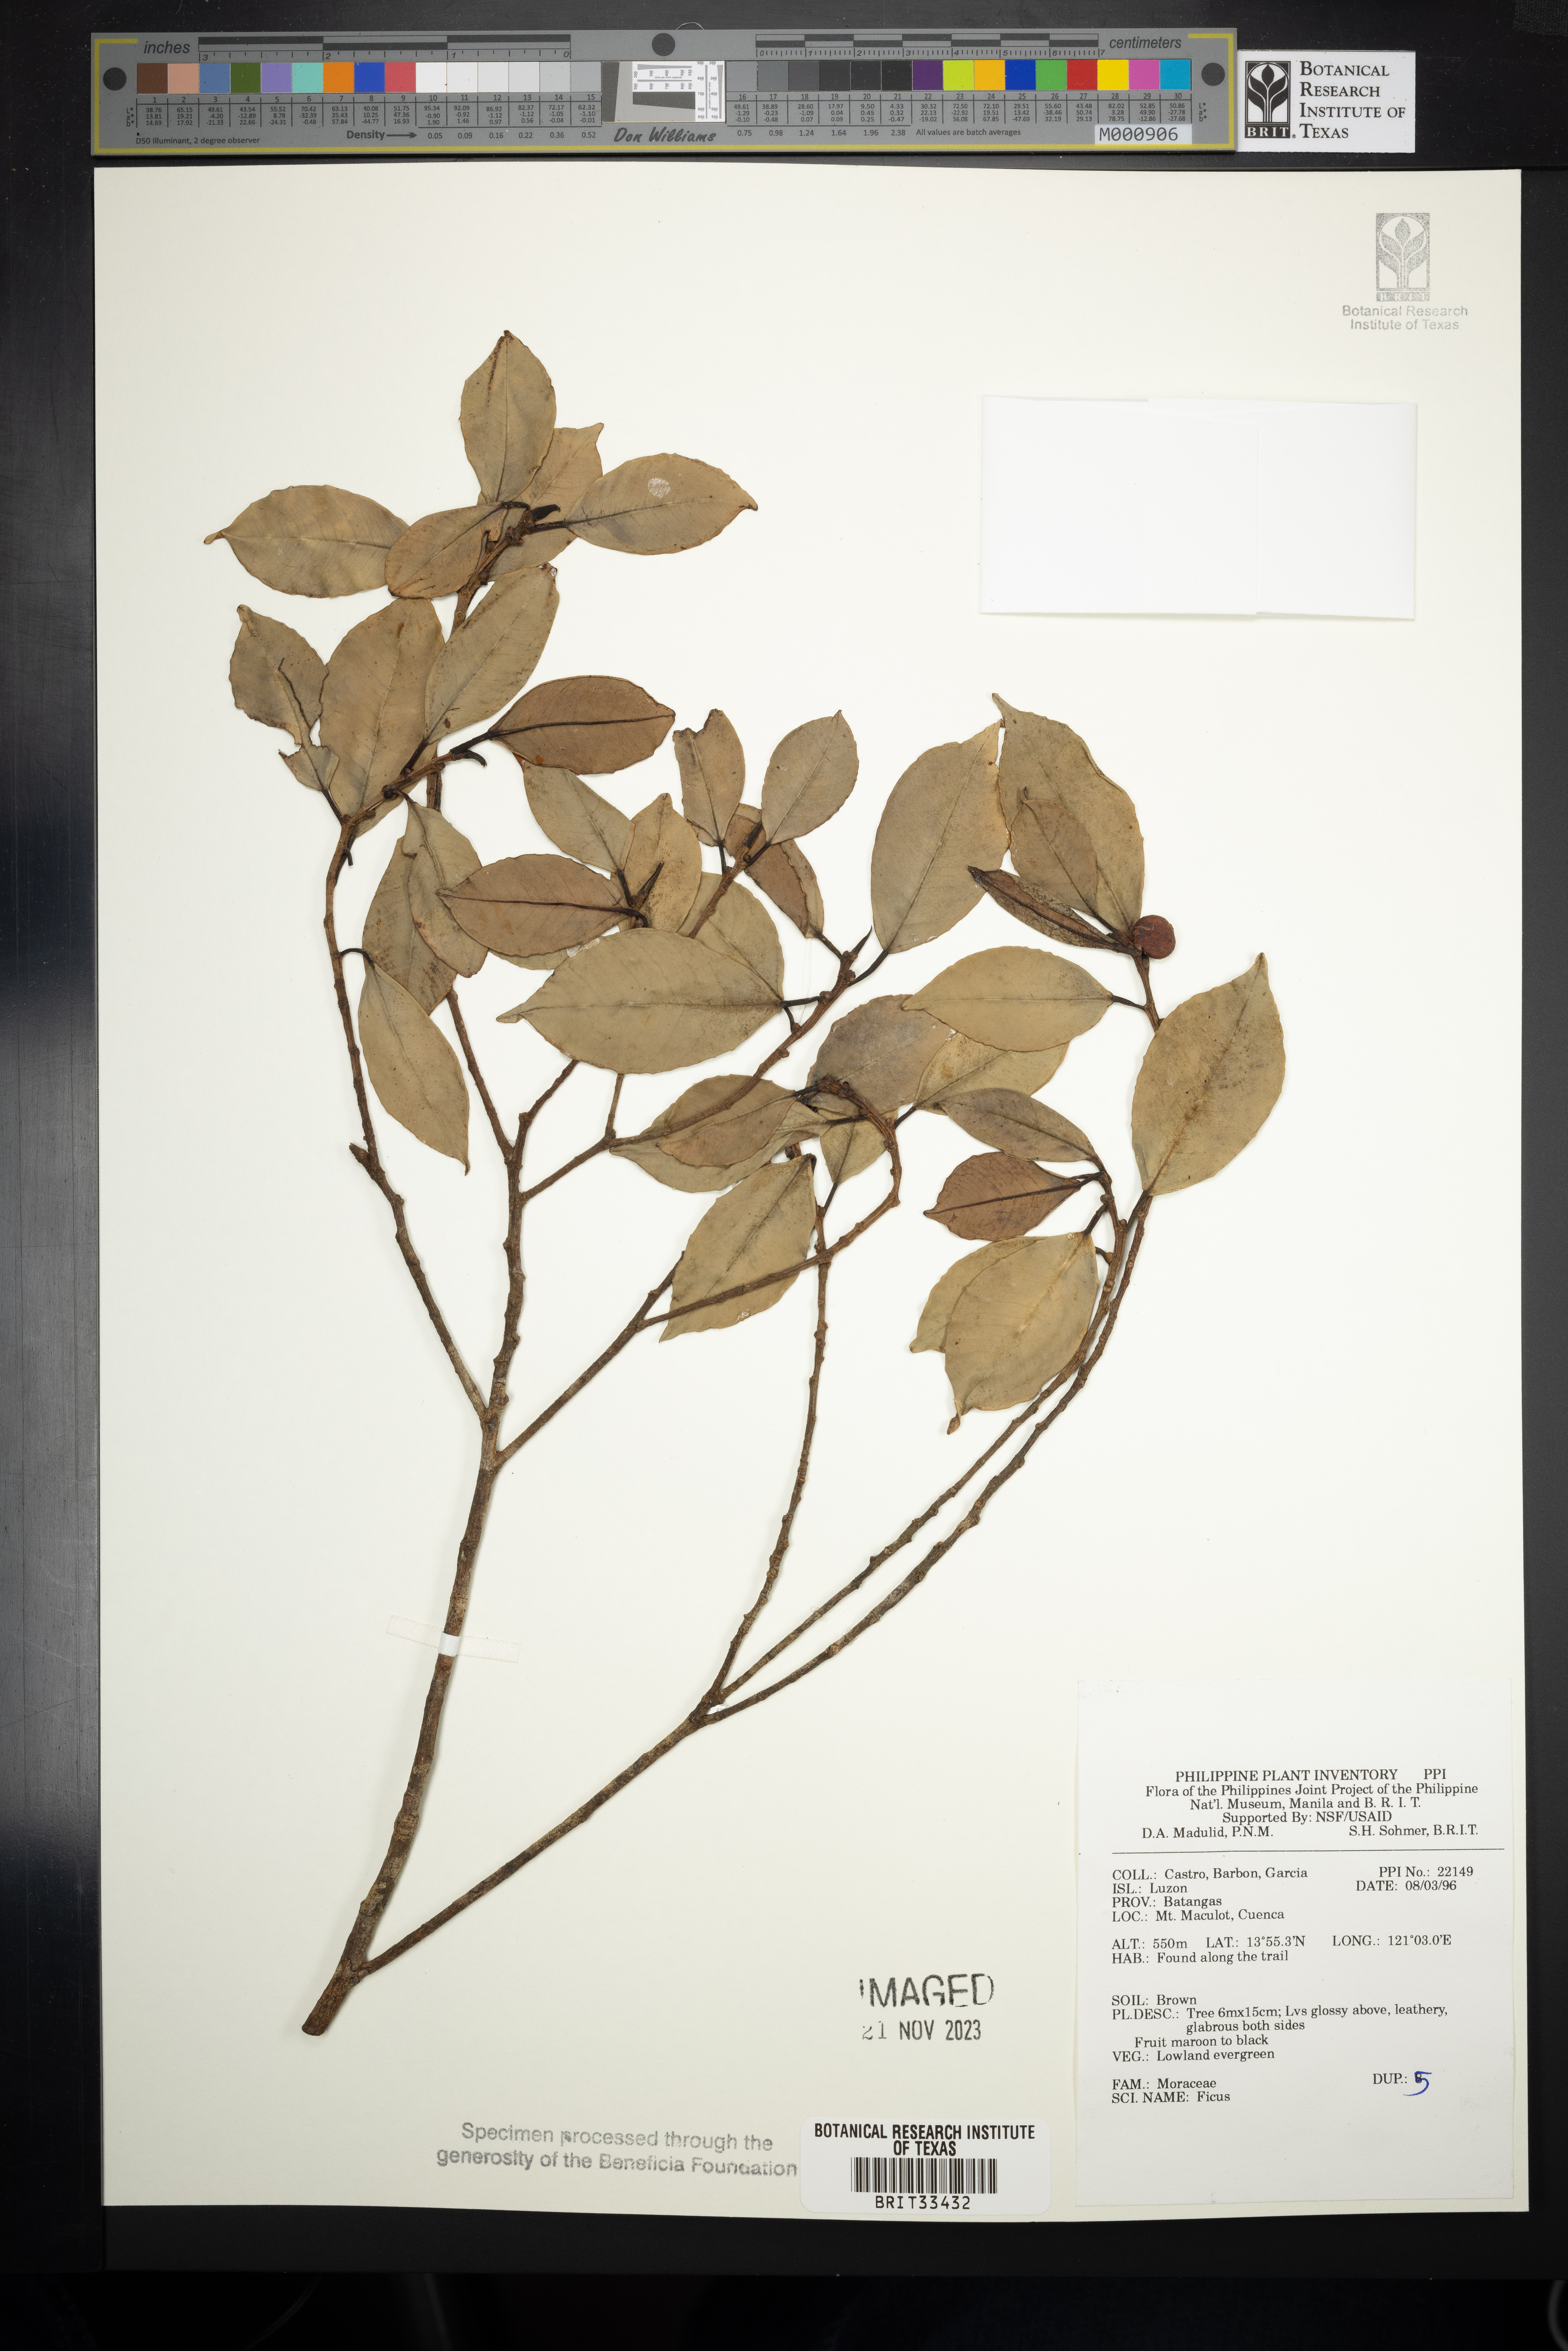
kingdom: Plantae
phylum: Tracheophyta
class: Magnoliopsida
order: Rosales
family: Moraceae
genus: Ficus
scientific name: Ficus
